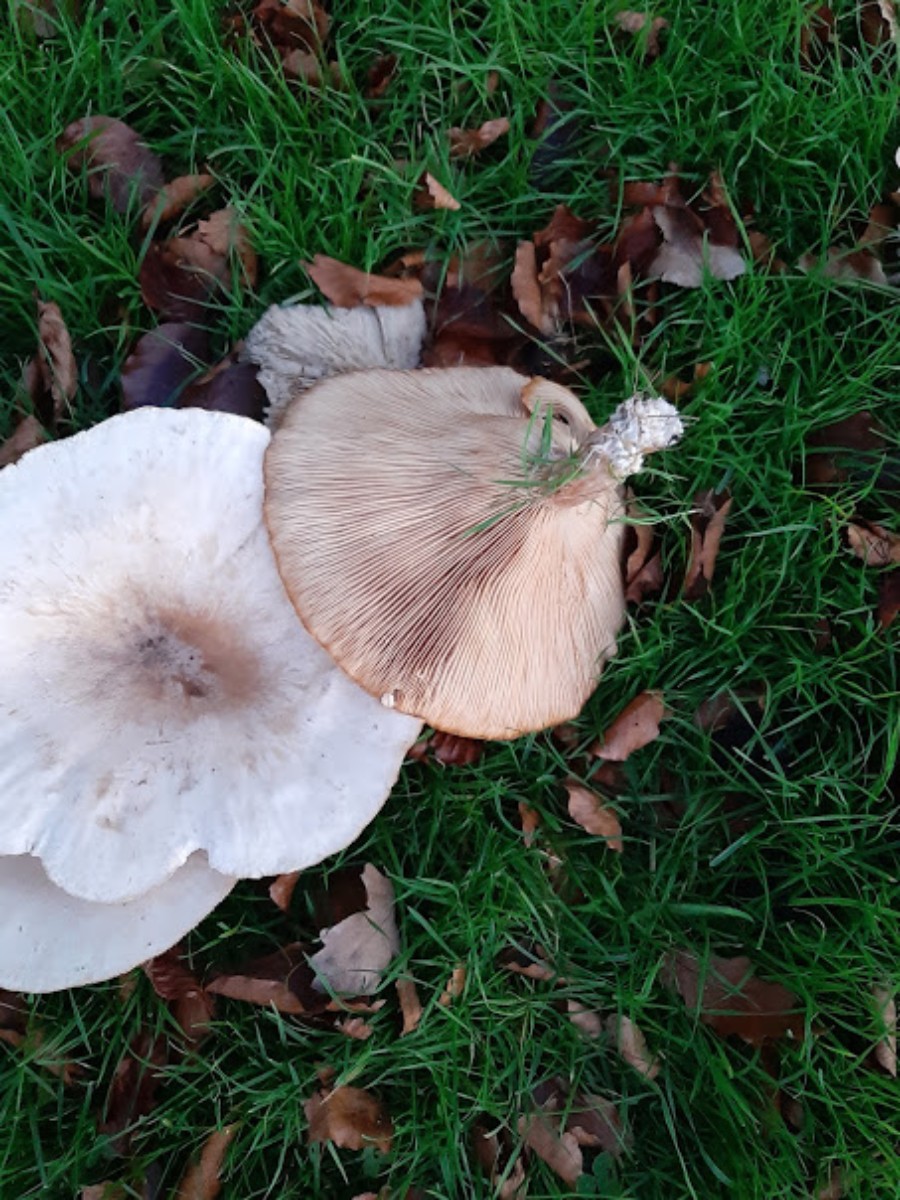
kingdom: Fungi
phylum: Basidiomycota
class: Agaricomycetes
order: Agaricales
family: Tricholomataceae
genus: Aspropaxillus
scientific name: Aspropaxillus giganteus
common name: kæmpe-tragtridderhat
